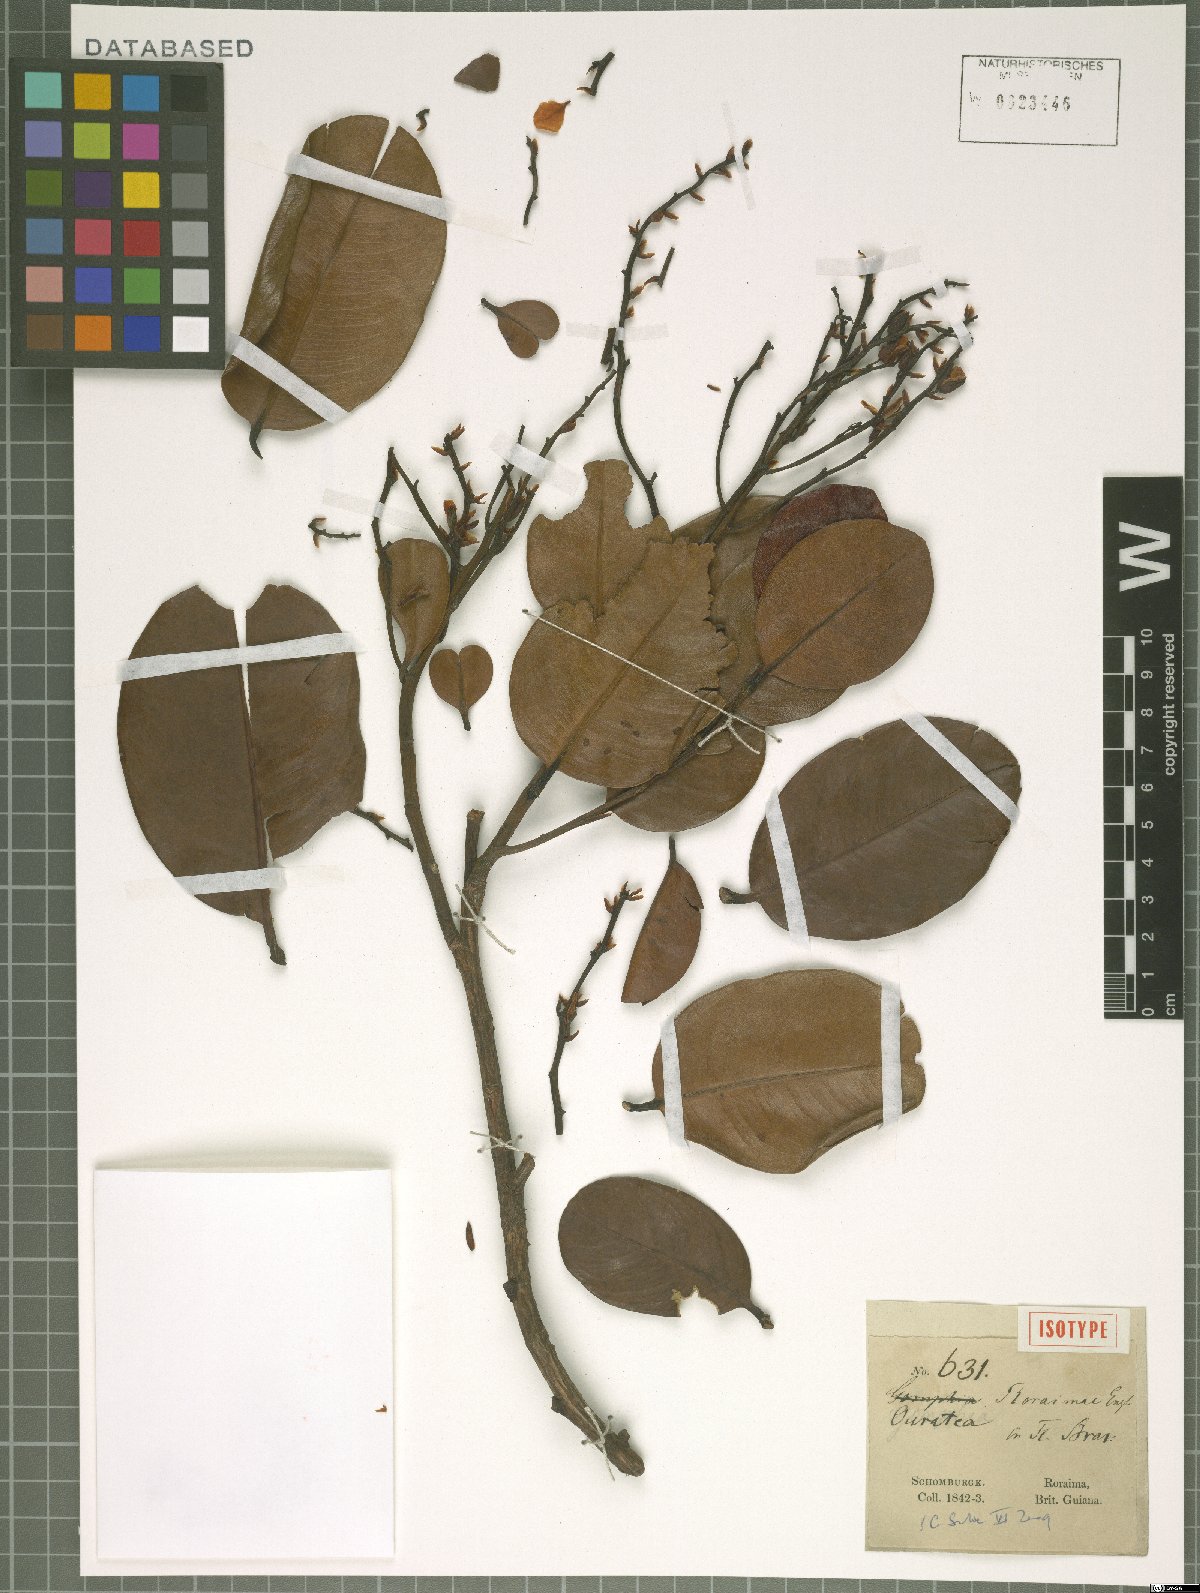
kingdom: Plantae
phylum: Tracheophyta
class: Magnoliopsida
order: Malpighiales
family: Ochnaceae
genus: Ouratea
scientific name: Ouratea roraimae
